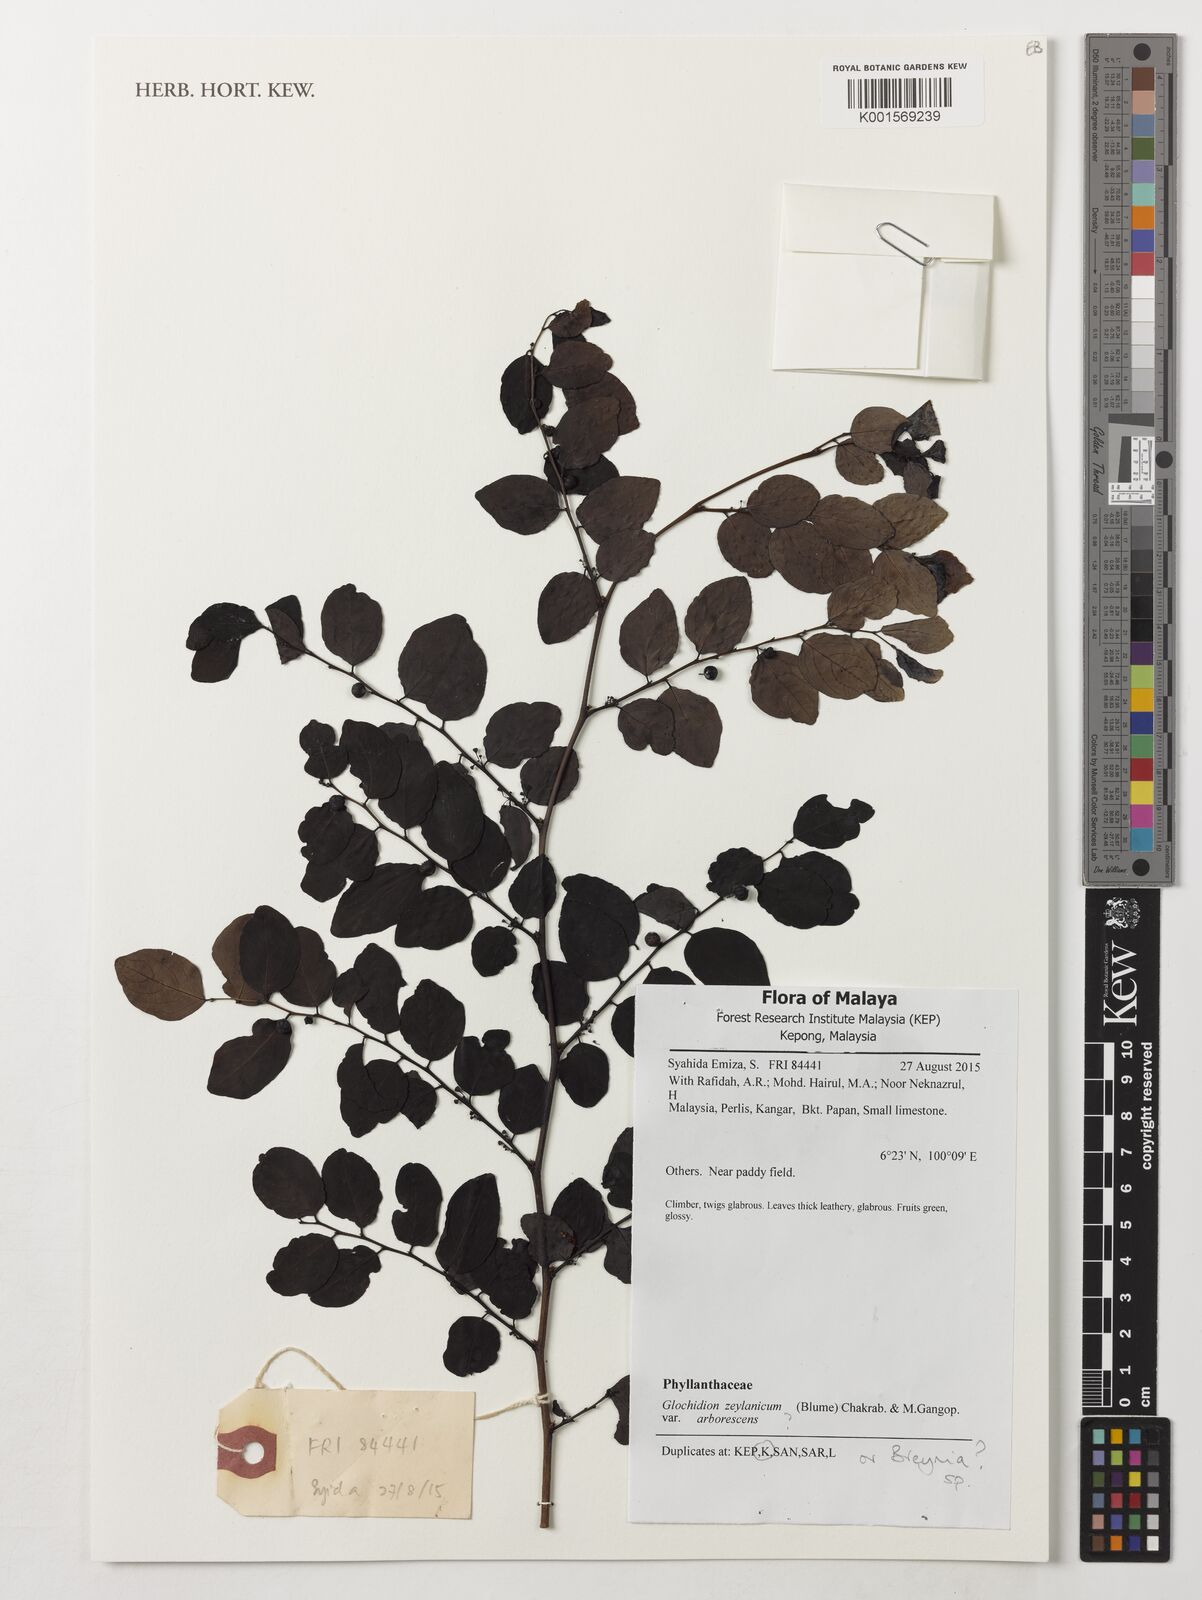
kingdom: Plantae
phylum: Tracheophyta
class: Magnoliopsida
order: Malpighiales
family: Phyllanthaceae
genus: Glochidion
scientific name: Glochidion zeylanicum
